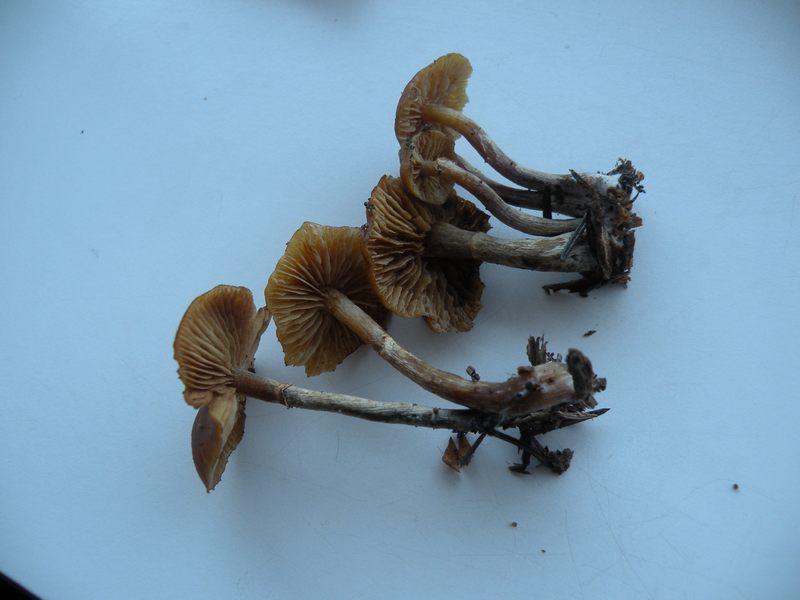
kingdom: Fungi
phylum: Basidiomycota
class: Agaricomycetes
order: Agaricales
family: Hymenogastraceae
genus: Galerina
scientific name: Galerina marginata
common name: randbæltet hjelmhat
